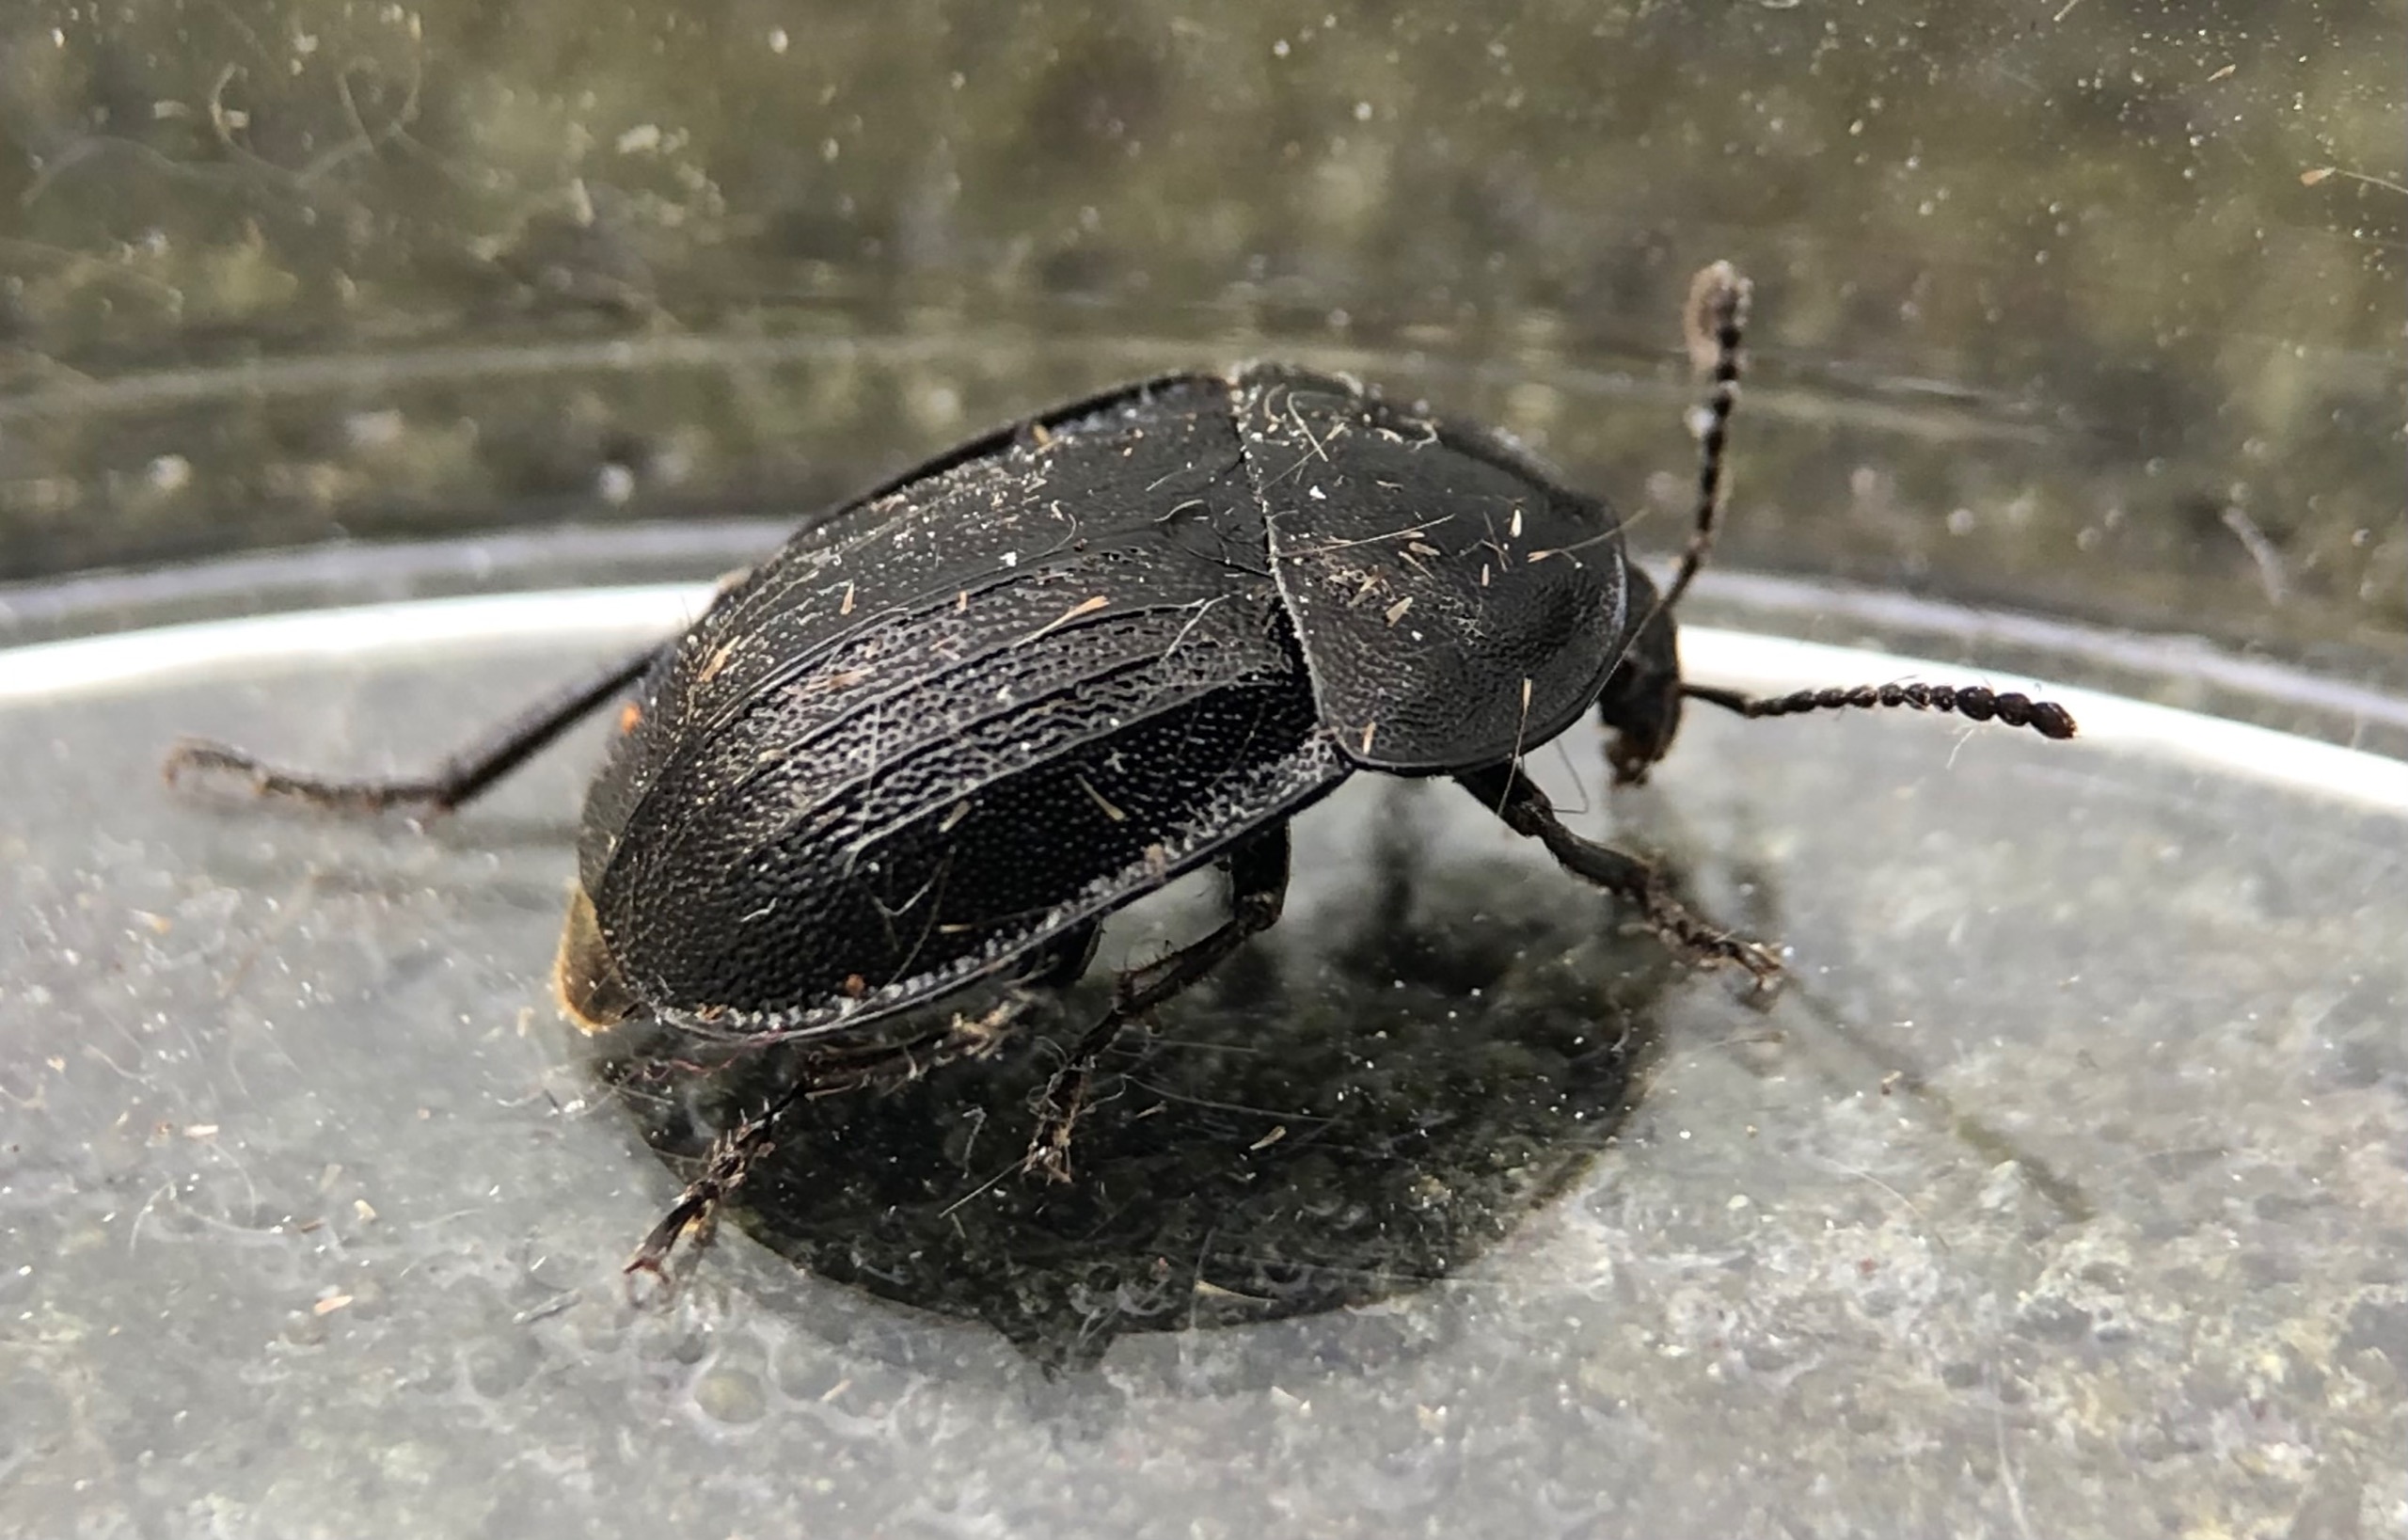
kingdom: Animalia
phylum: Arthropoda
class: Insecta
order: Coleoptera
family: Staphylinidae
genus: Silpha
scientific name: Silpha atrata
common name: Snegleådselbille
